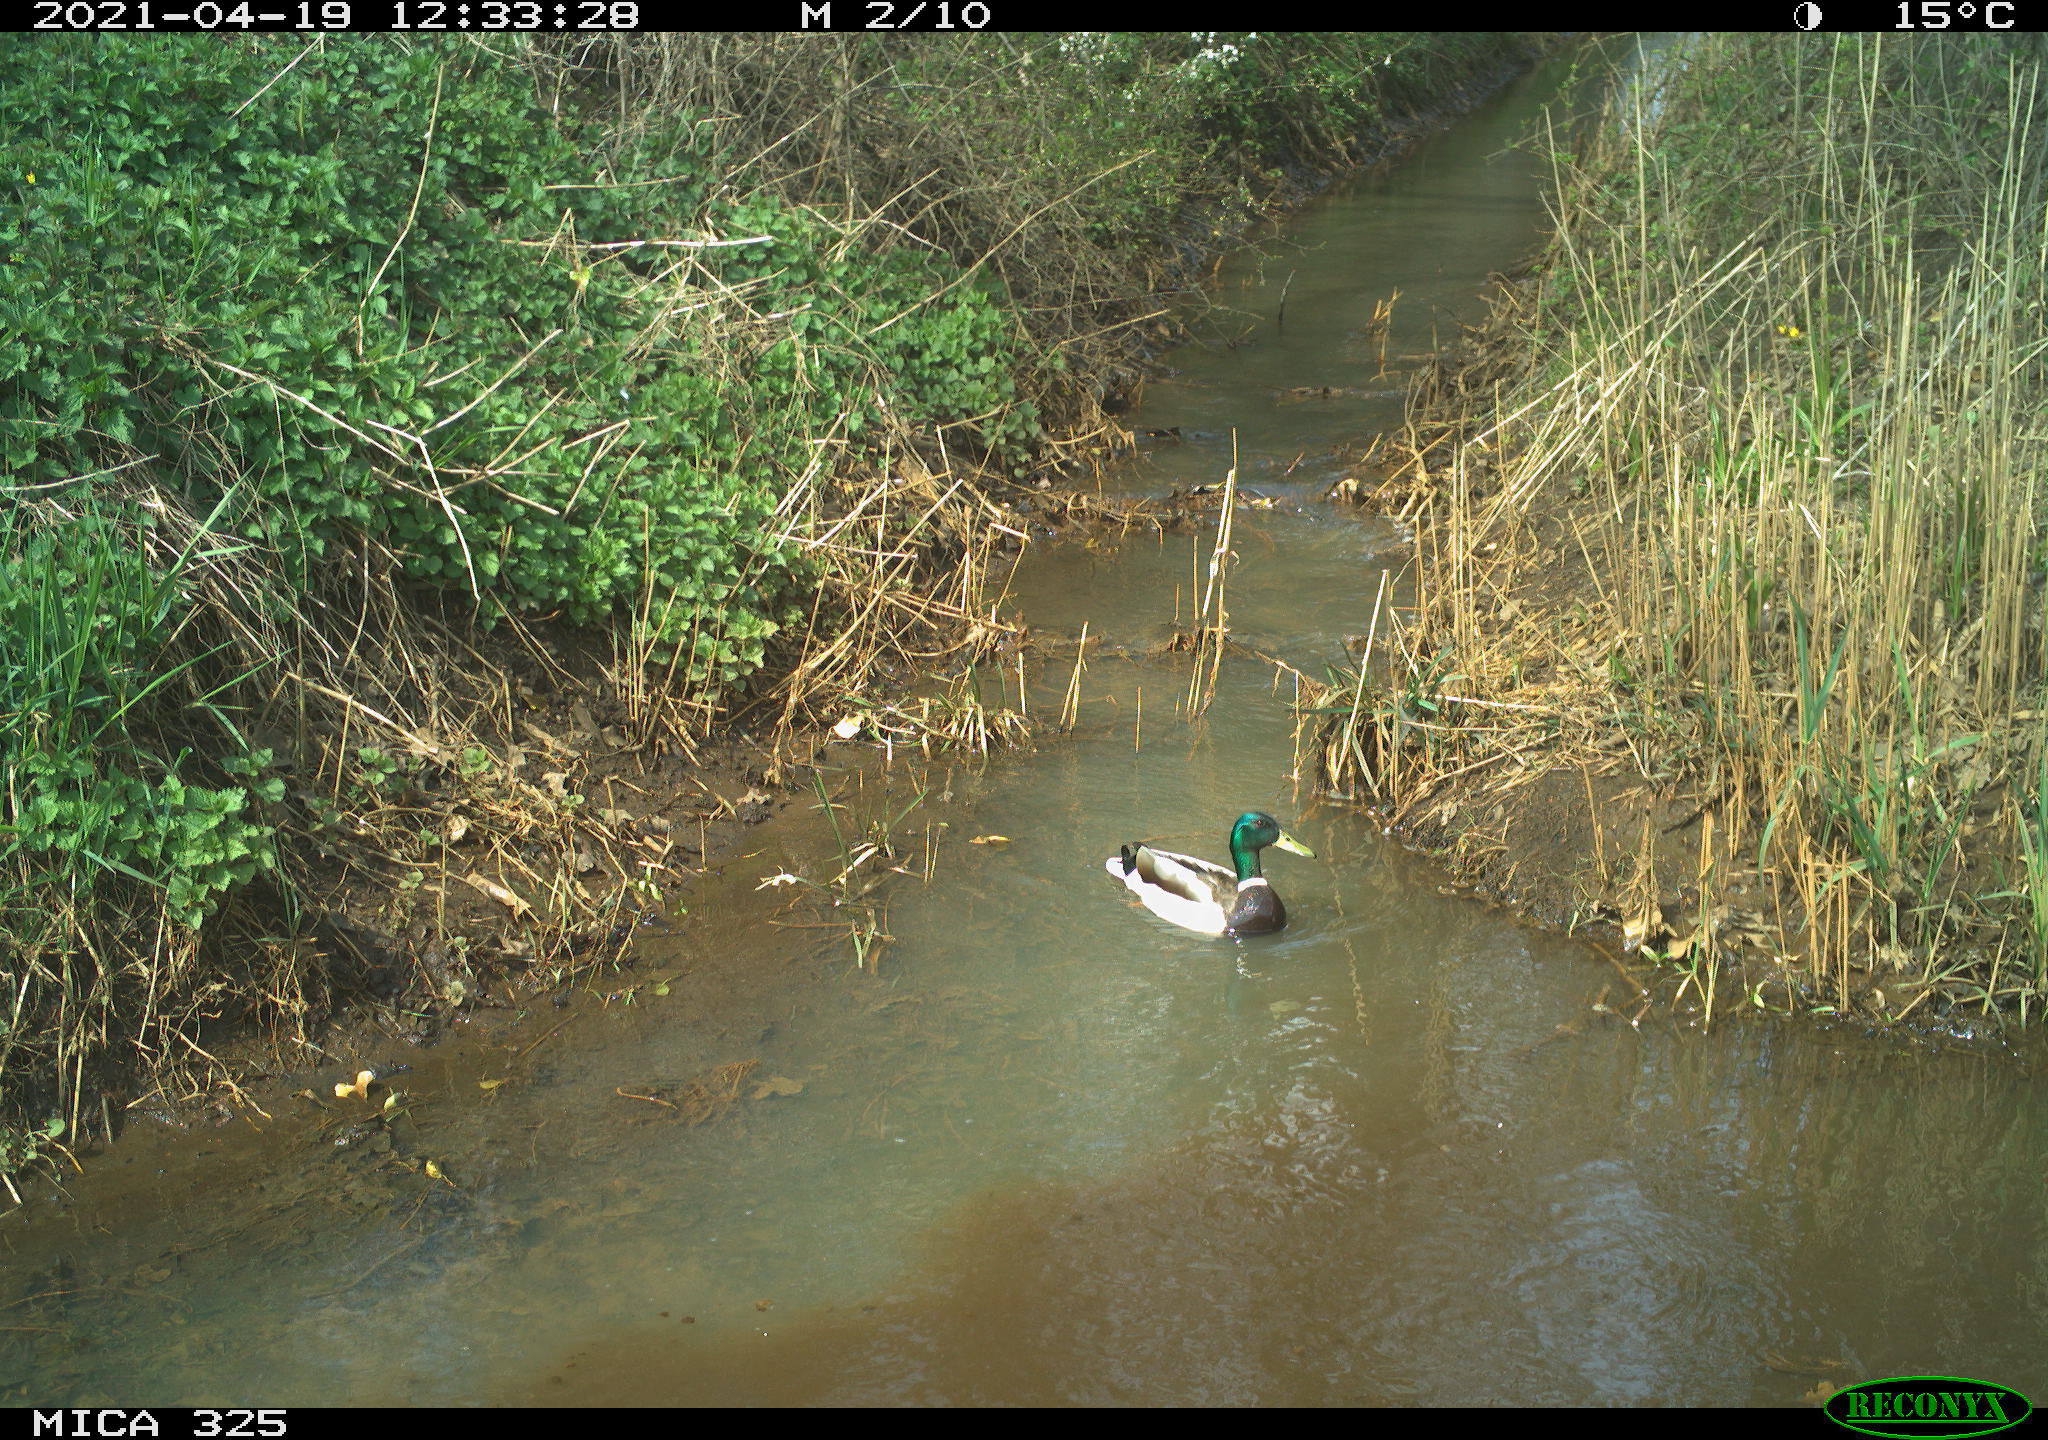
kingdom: Animalia
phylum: Chordata
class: Aves
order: Anseriformes
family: Anatidae
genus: Anas
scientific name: Anas platyrhynchos
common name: Mallard
